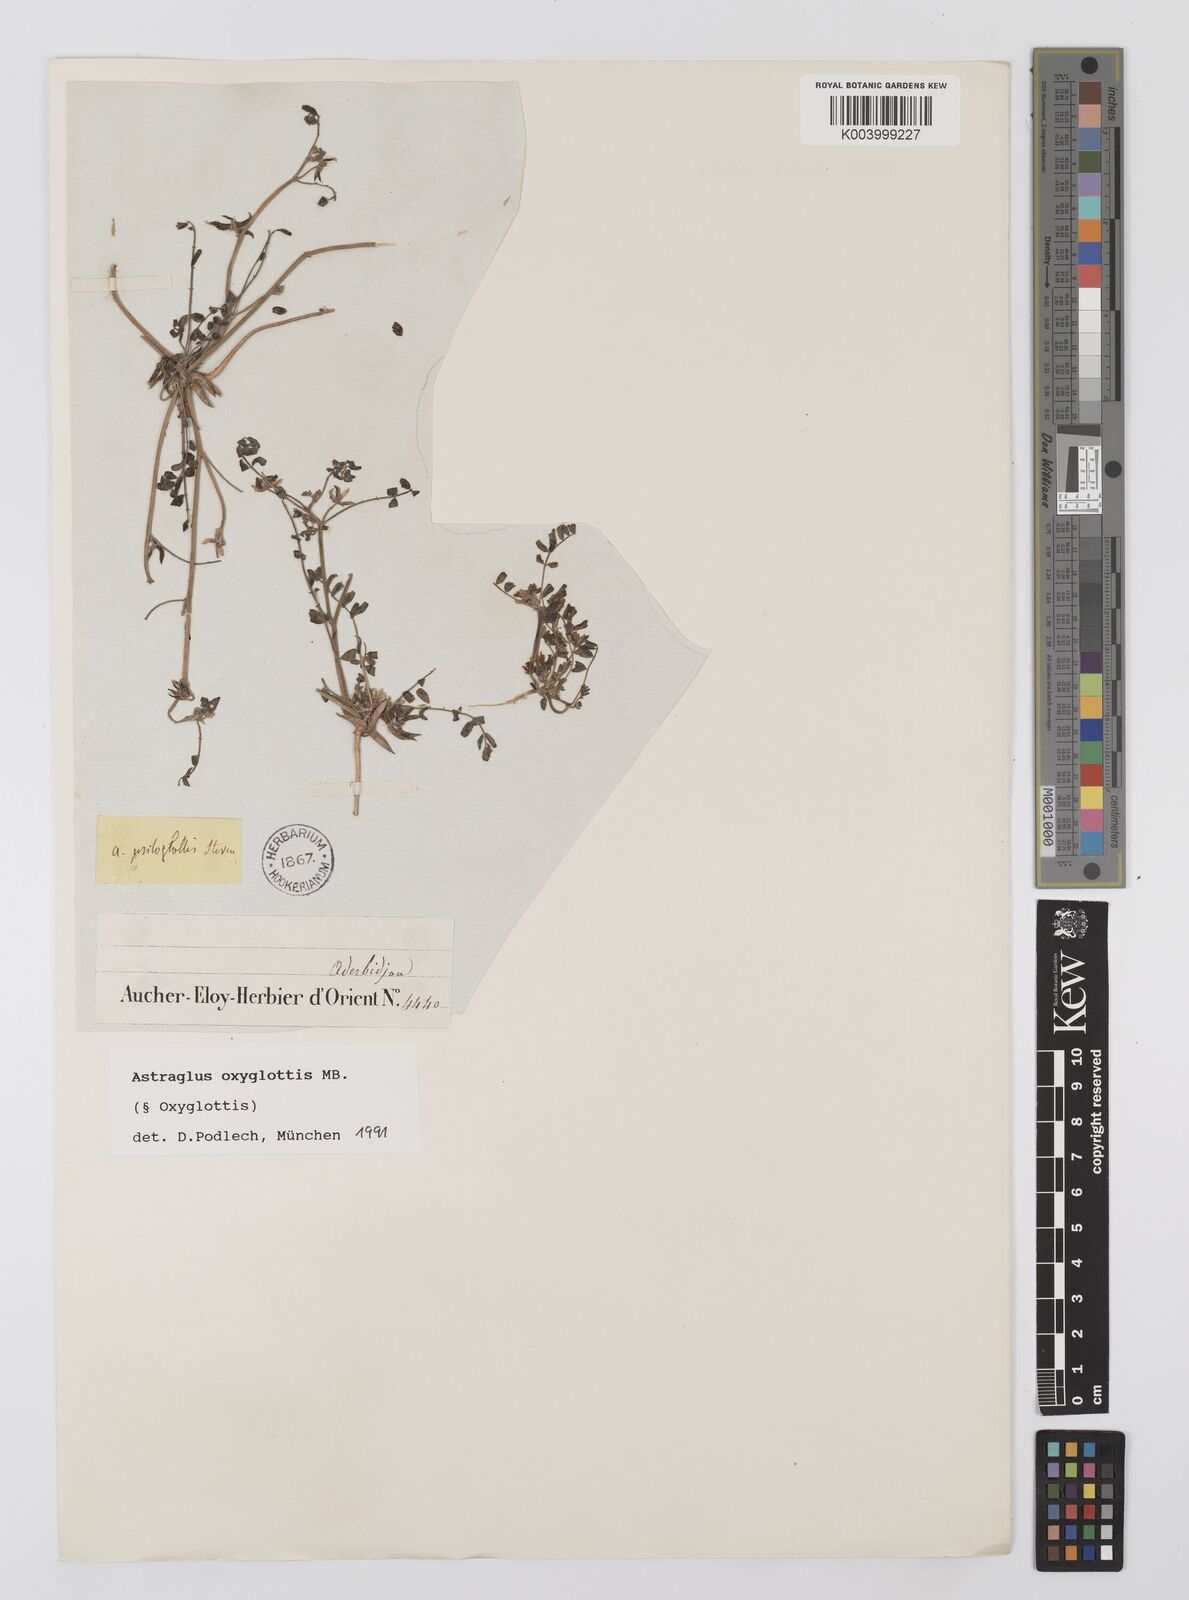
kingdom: Plantae
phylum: Tracheophyta
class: Magnoliopsida
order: Fabales
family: Fabaceae
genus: Astragalus
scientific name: Astragalus oxyglottis
